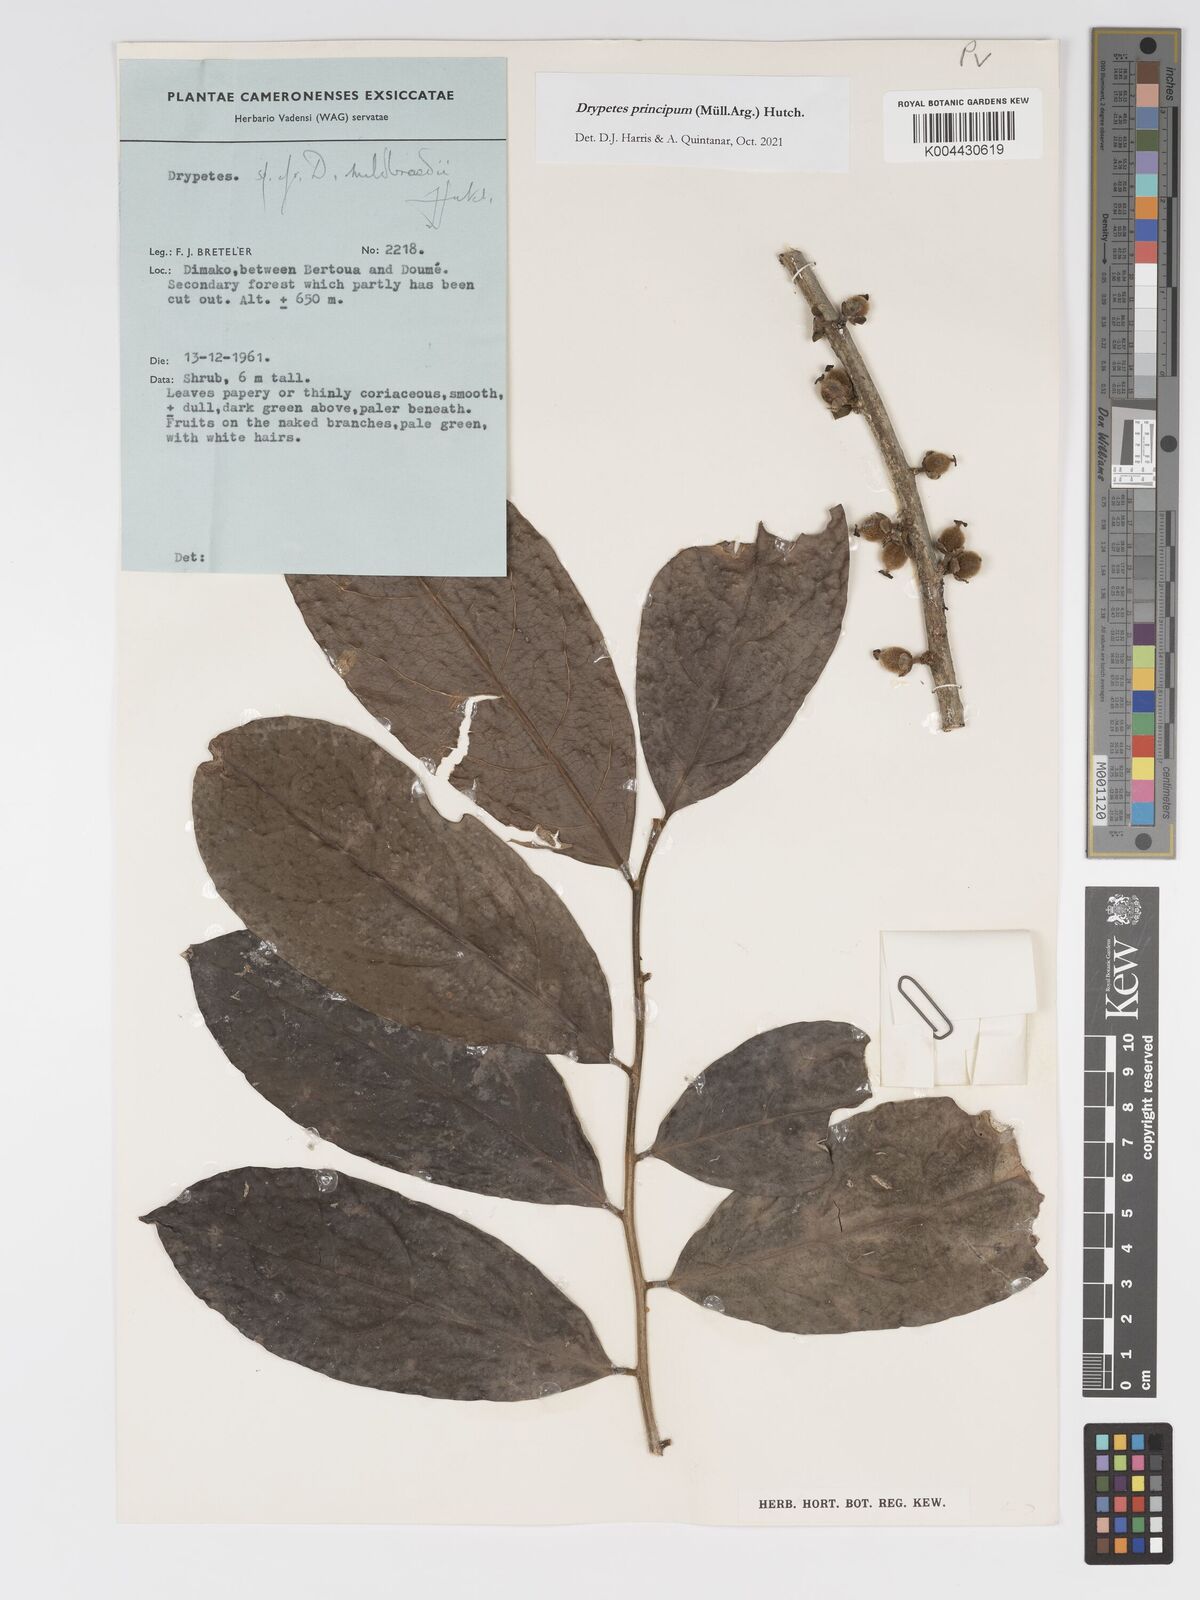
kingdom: Plantae
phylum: Tracheophyta
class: Magnoliopsida
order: Malpighiales
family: Putranjivaceae
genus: Drypetes
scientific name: Drypetes principum
